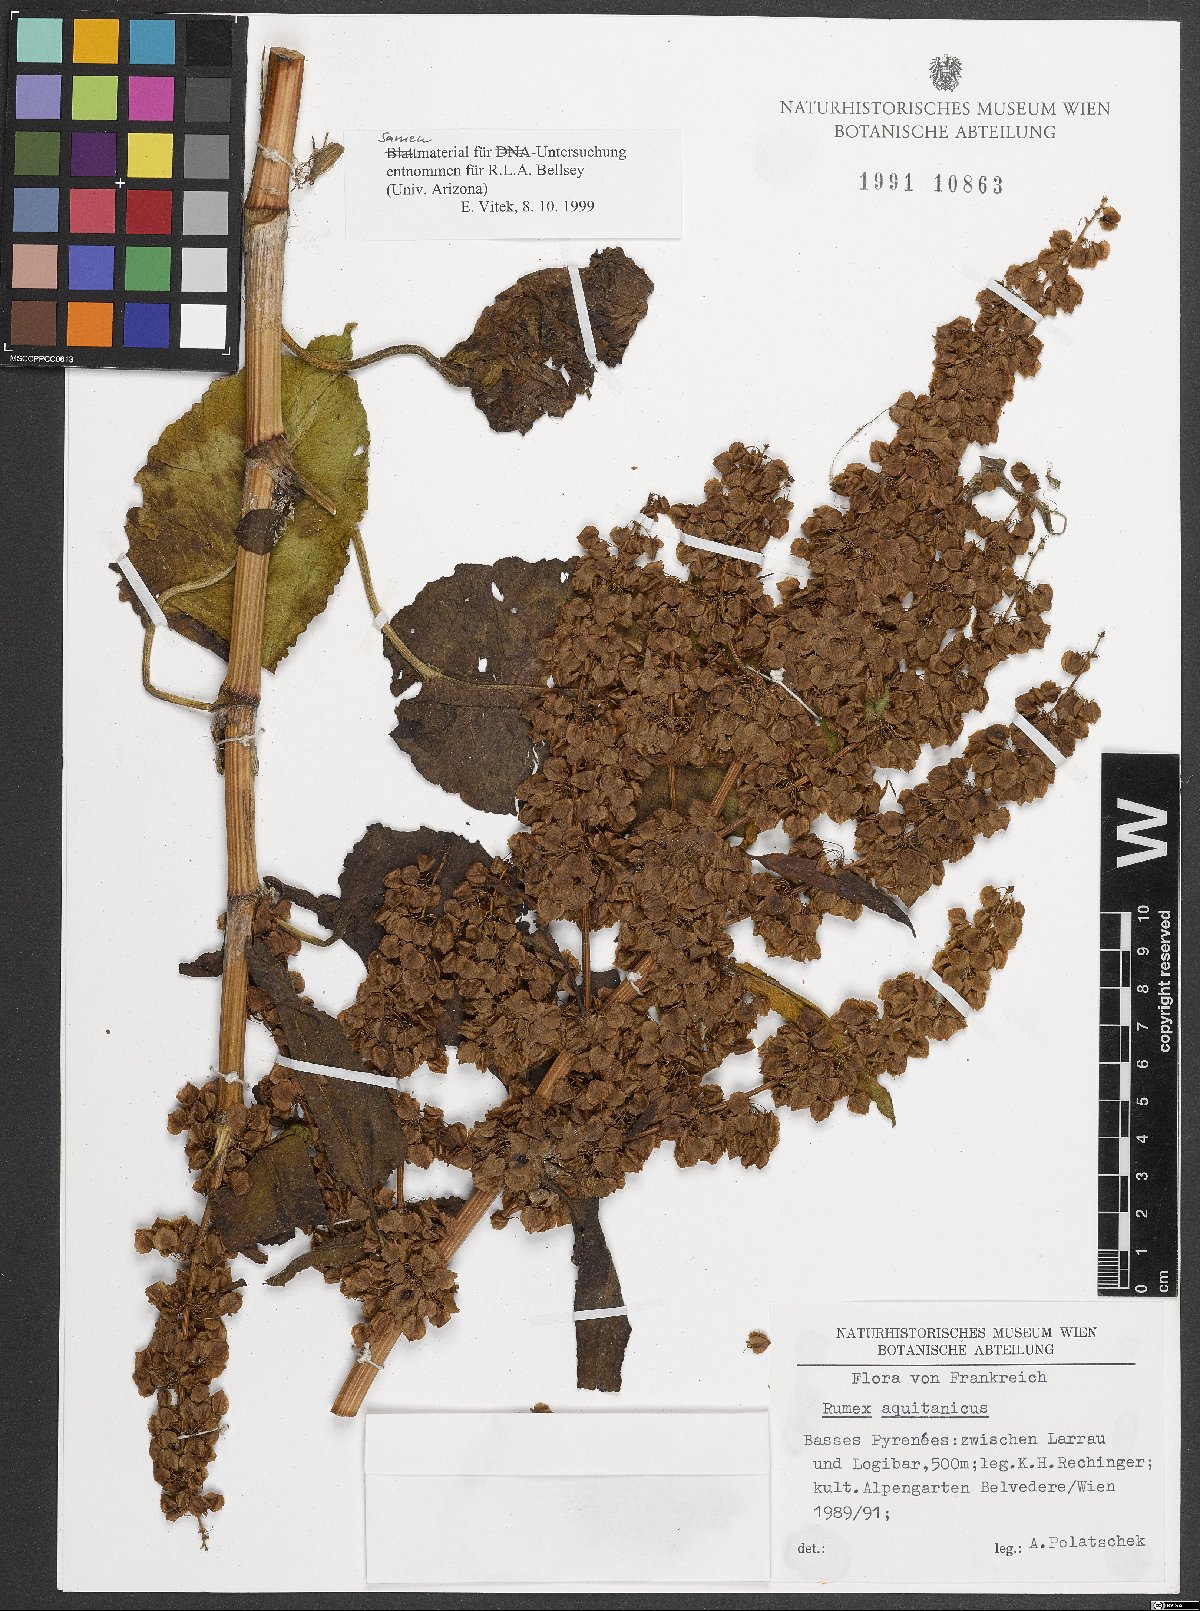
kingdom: Plantae
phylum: Tracheophyta
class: Magnoliopsida
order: Caryophyllales
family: Polygonaceae
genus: Rumex
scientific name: Rumex aquitanicus
